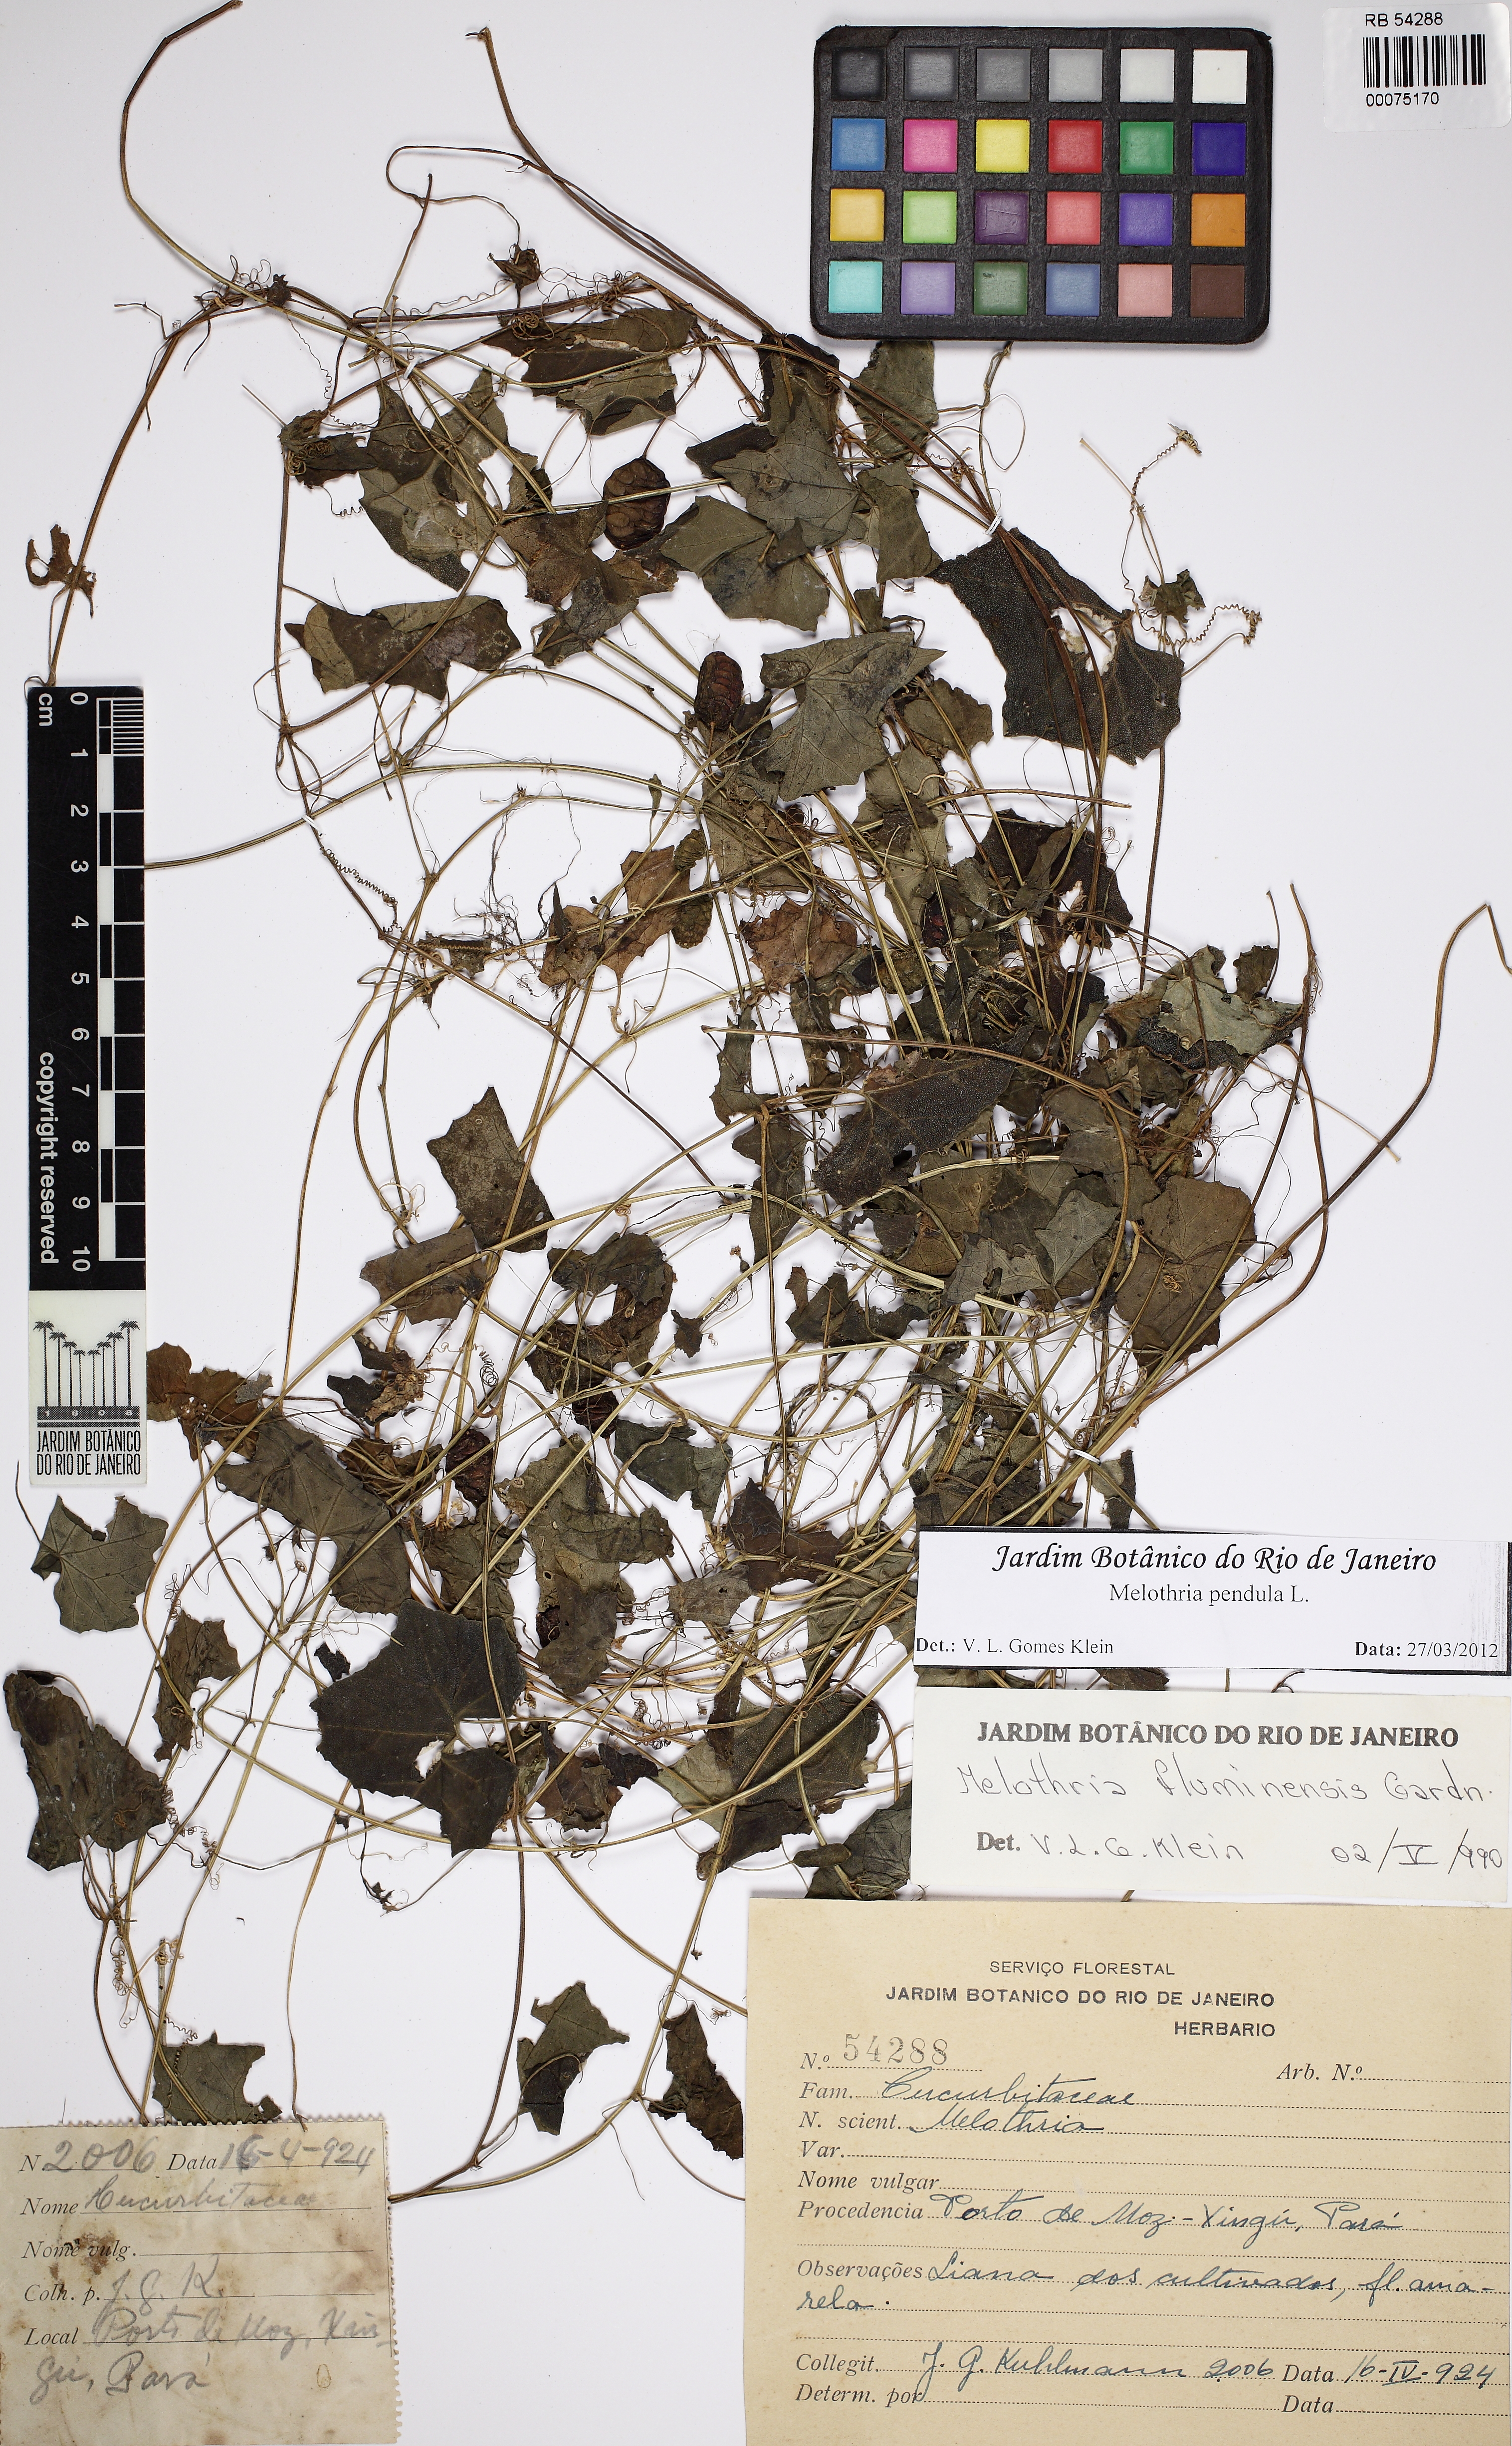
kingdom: Plantae
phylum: Tracheophyta
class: Magnoliopsida
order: Cucurbitales
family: Cucurbitaceae
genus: Melothria
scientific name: Melothria pendula
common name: Creeping-cucumber
